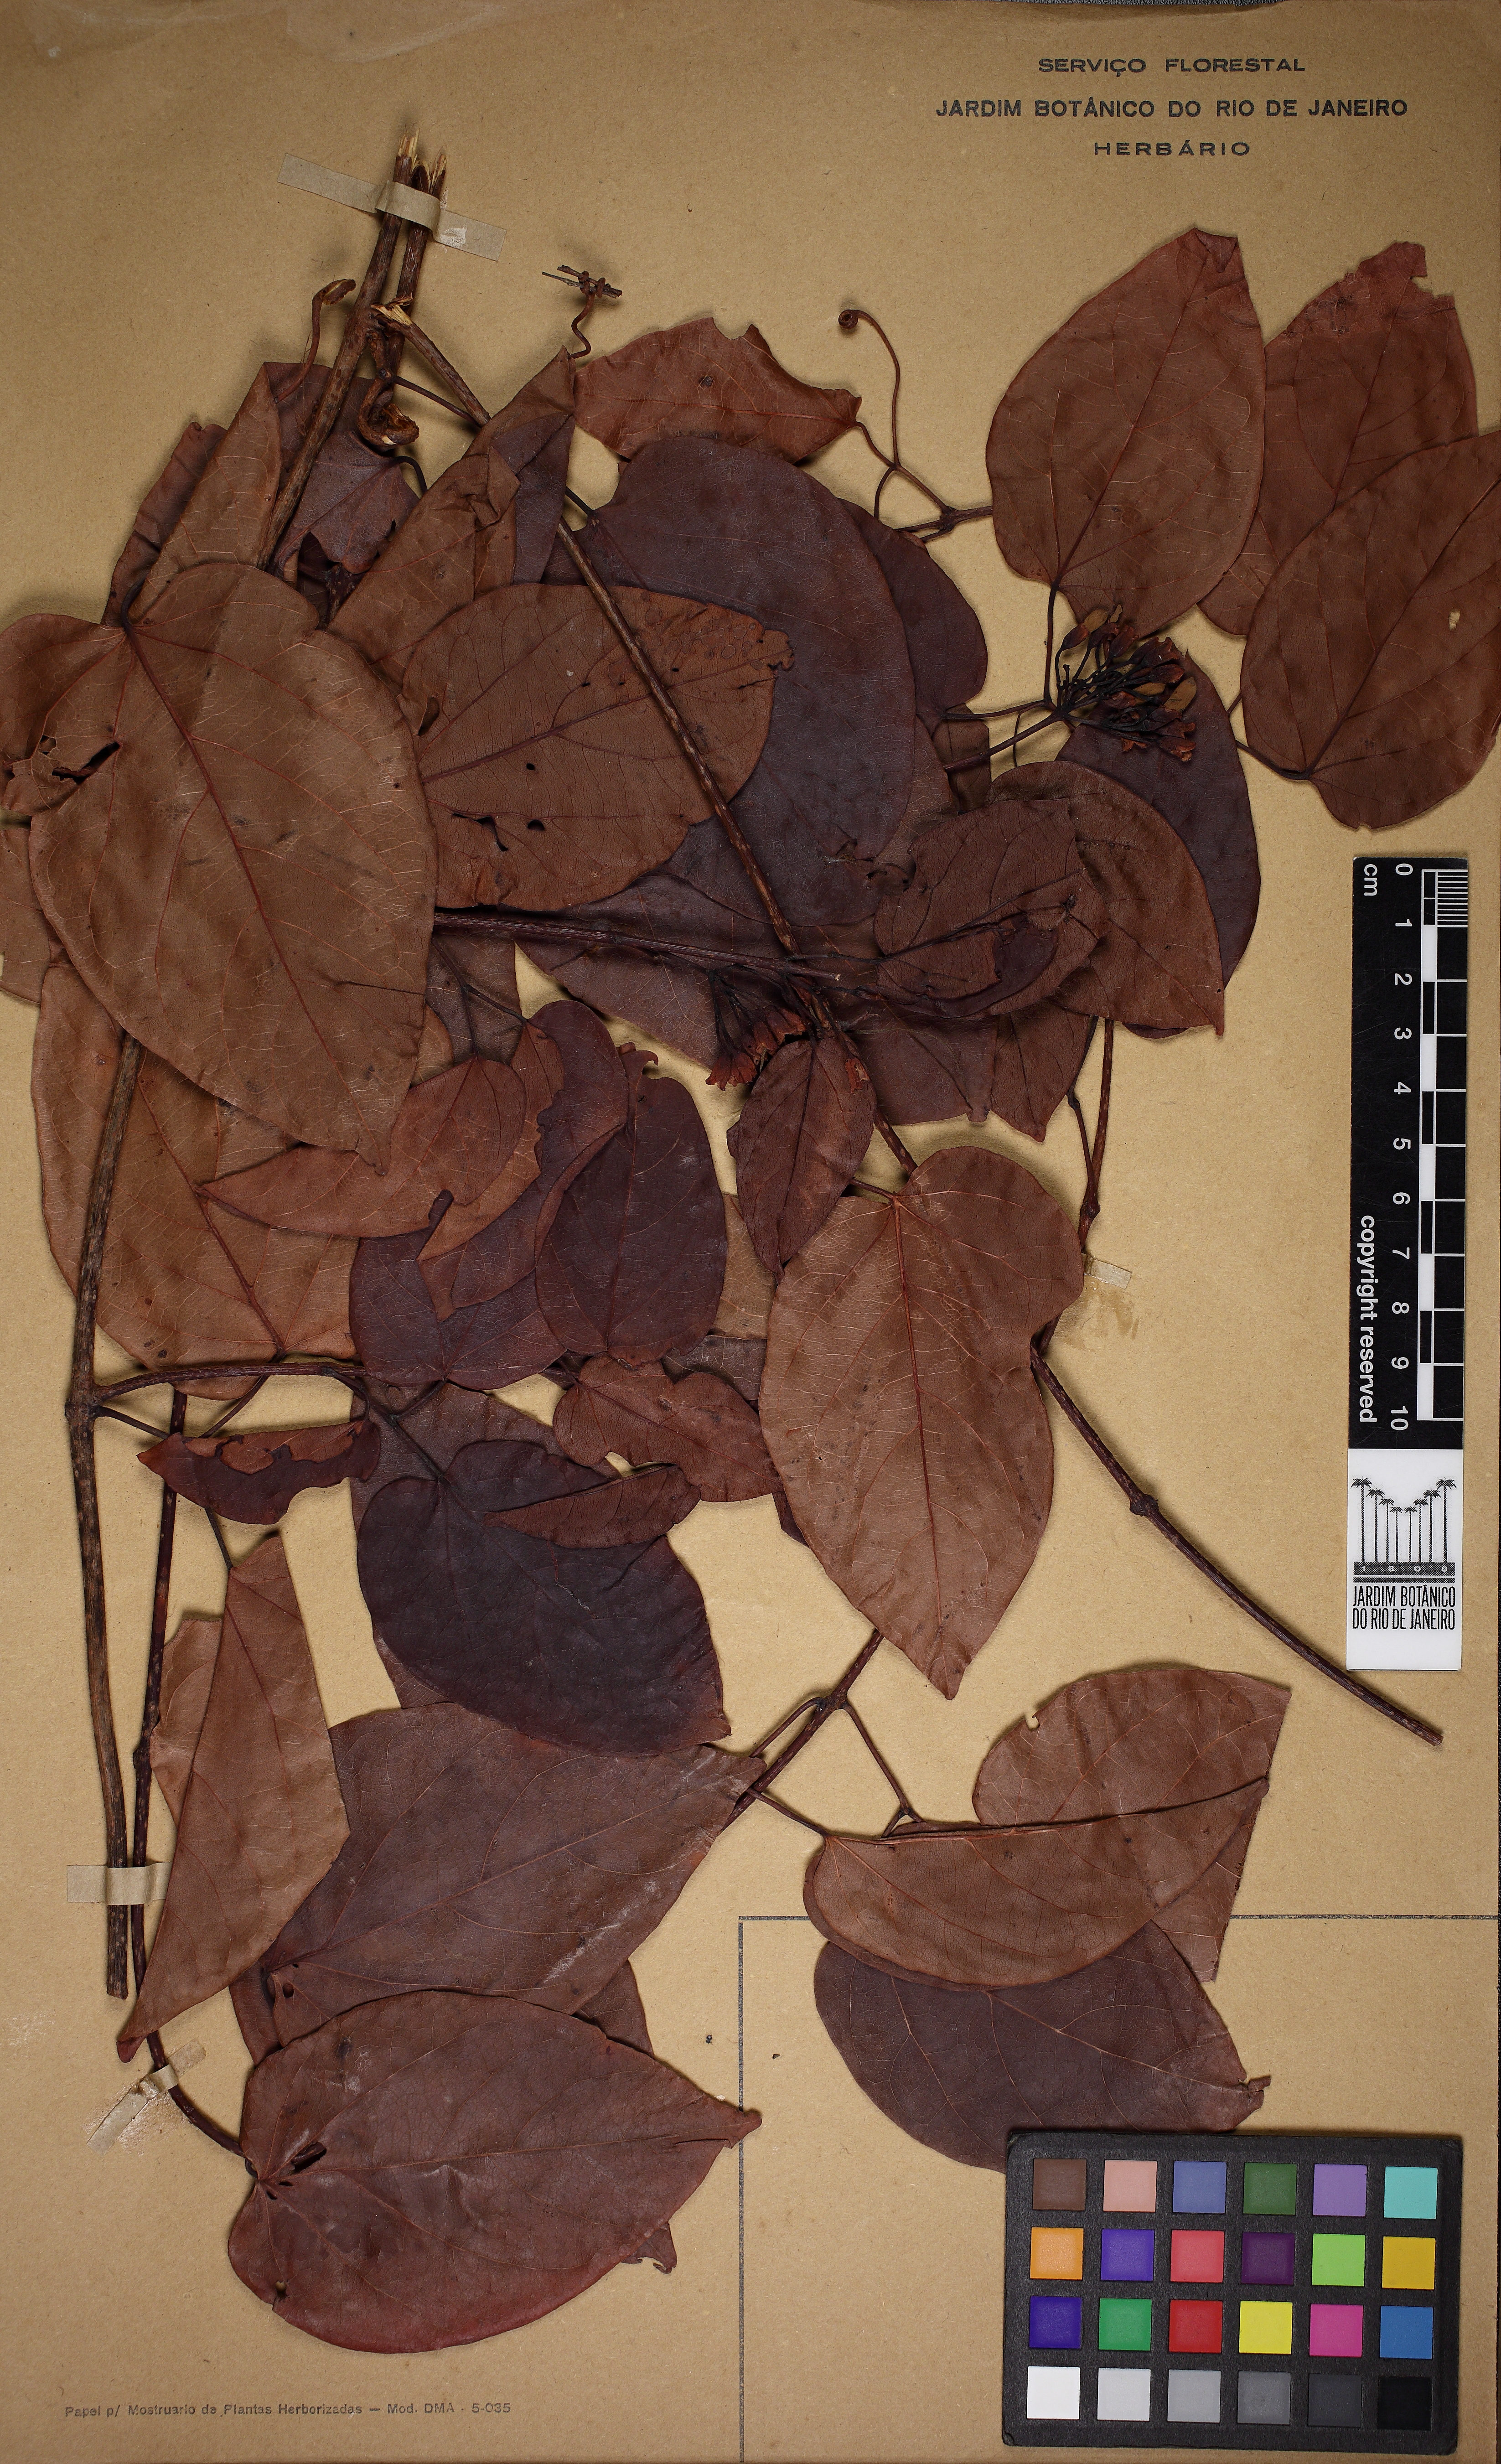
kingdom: Plantae
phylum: Tracheophyta
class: Magnoliopsida
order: Lamiales
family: Bignoniaceae
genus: Lundia
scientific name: Lundia longa
